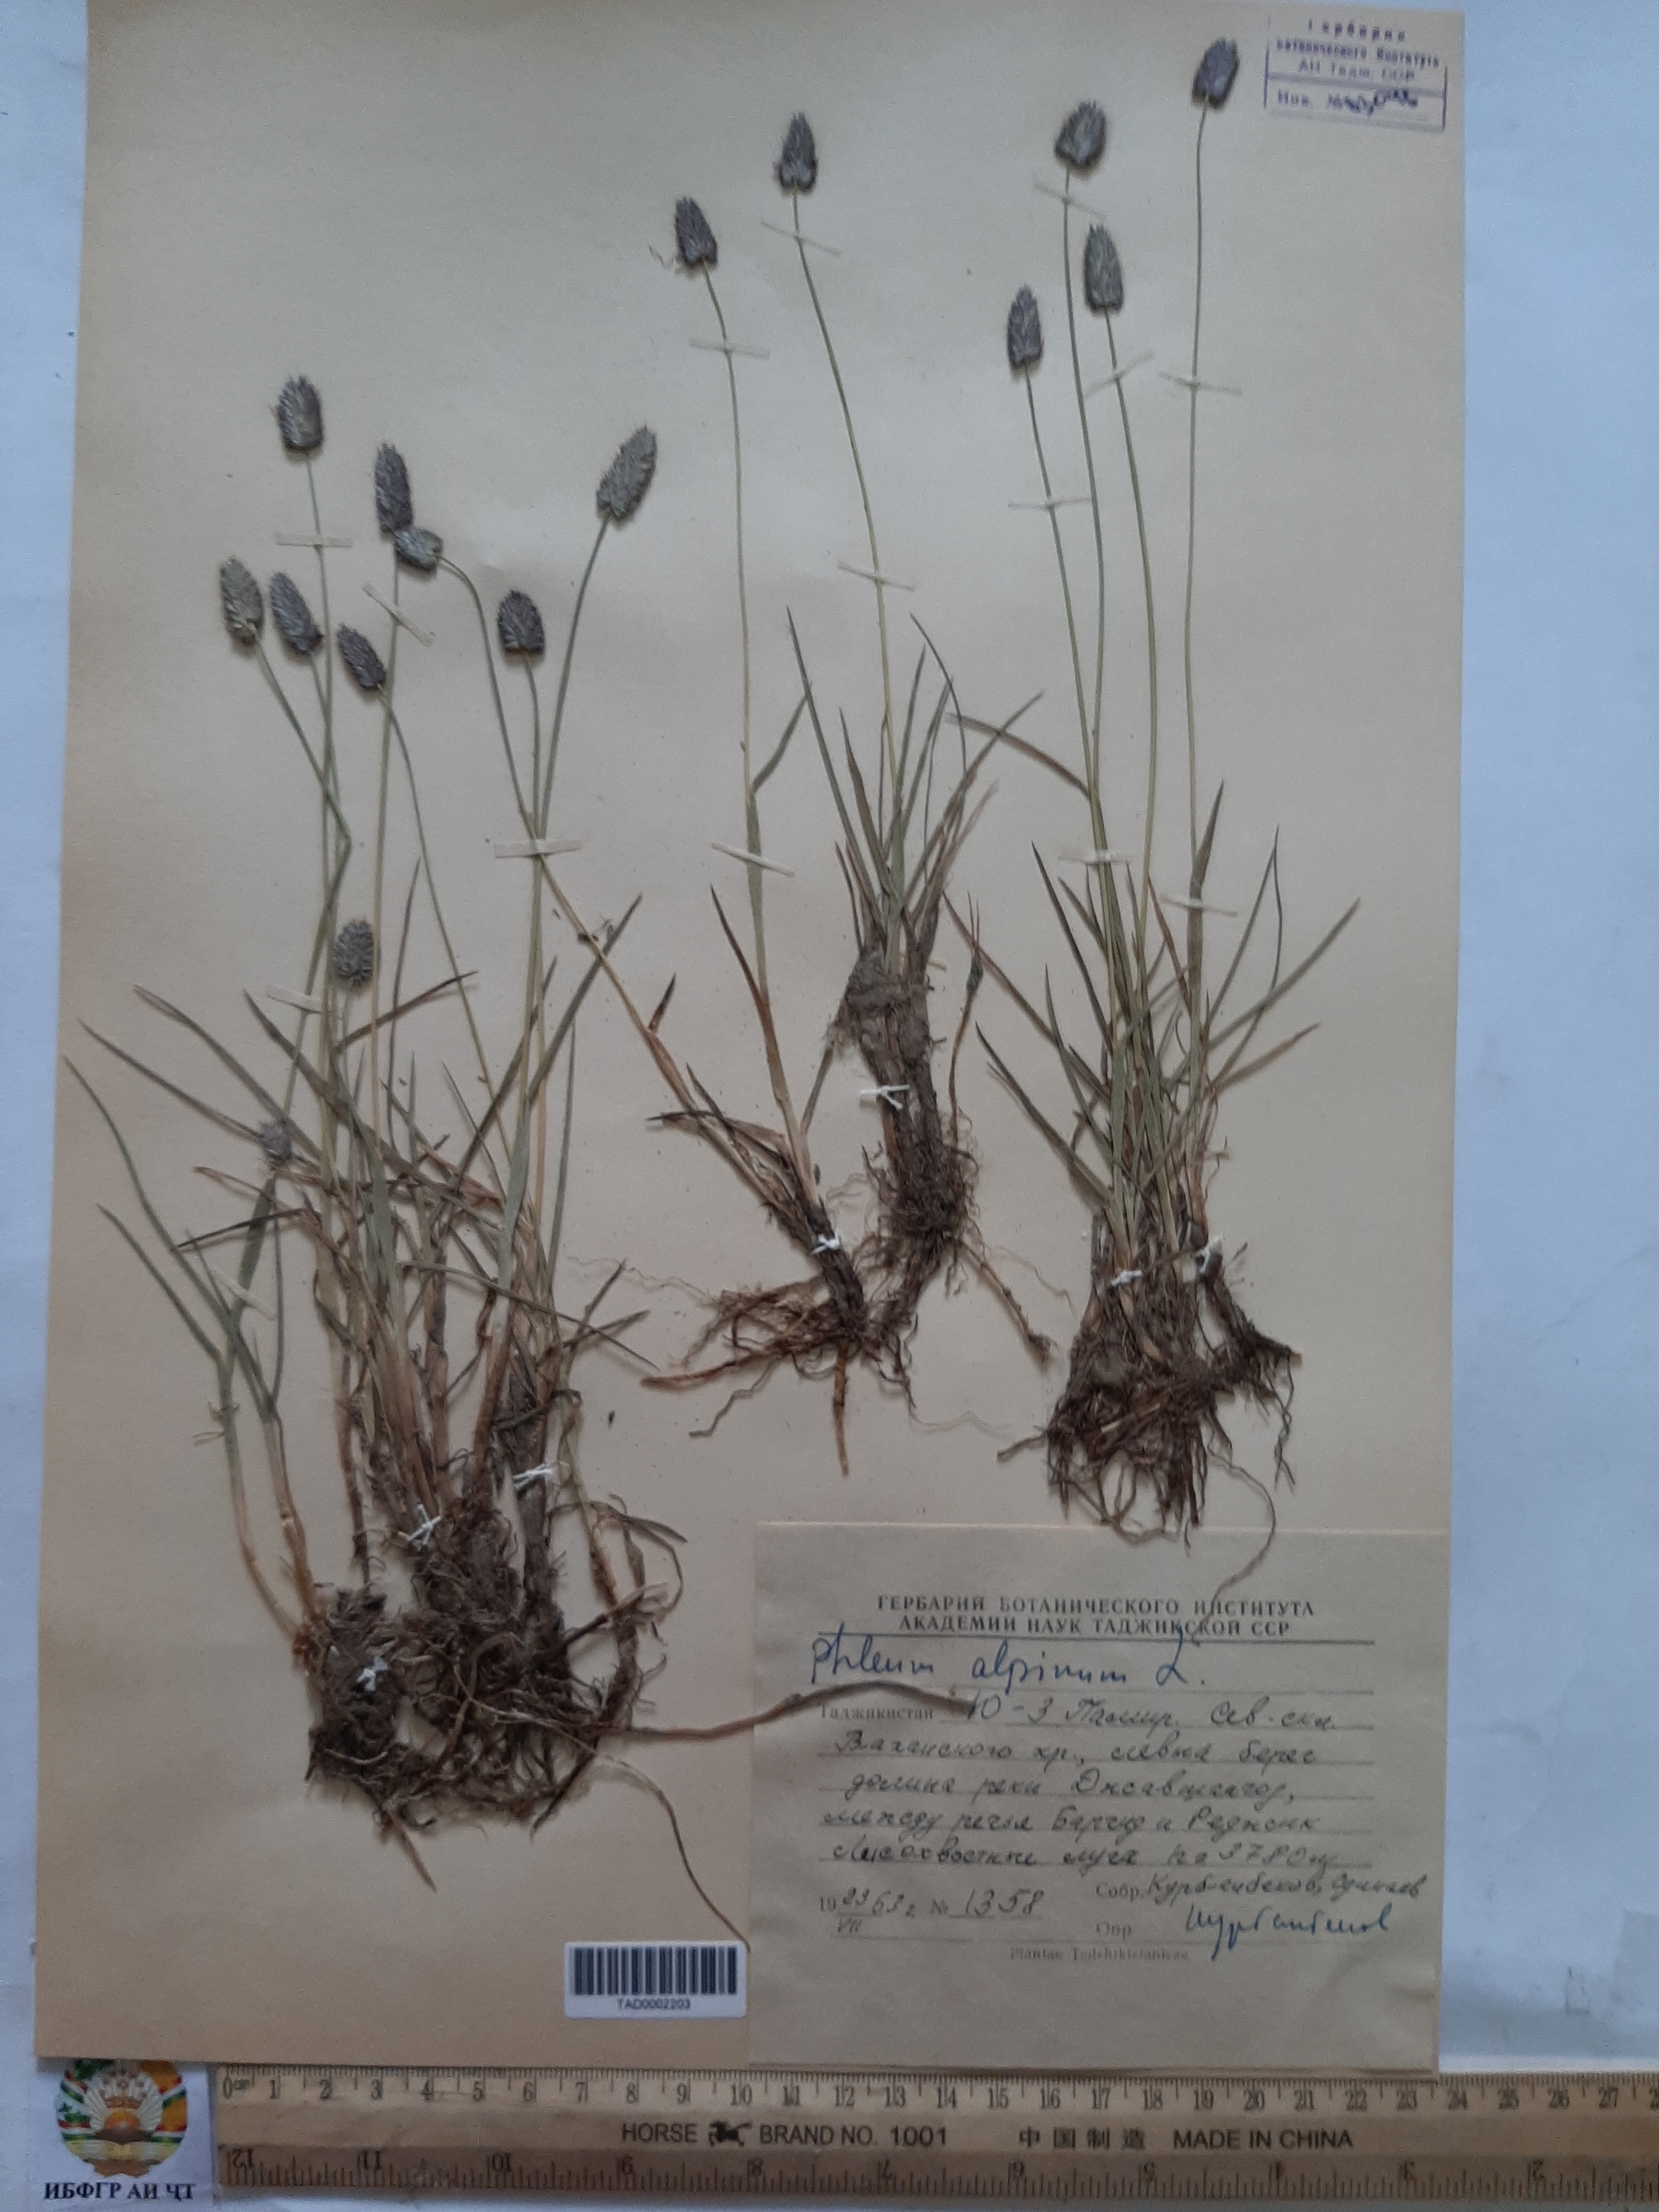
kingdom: Plantae
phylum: Tracheophyta
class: Liliopsida
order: Poales
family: Poaceae
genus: Phleum
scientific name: Phleum alpinum
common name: Alpine cat's-tail
